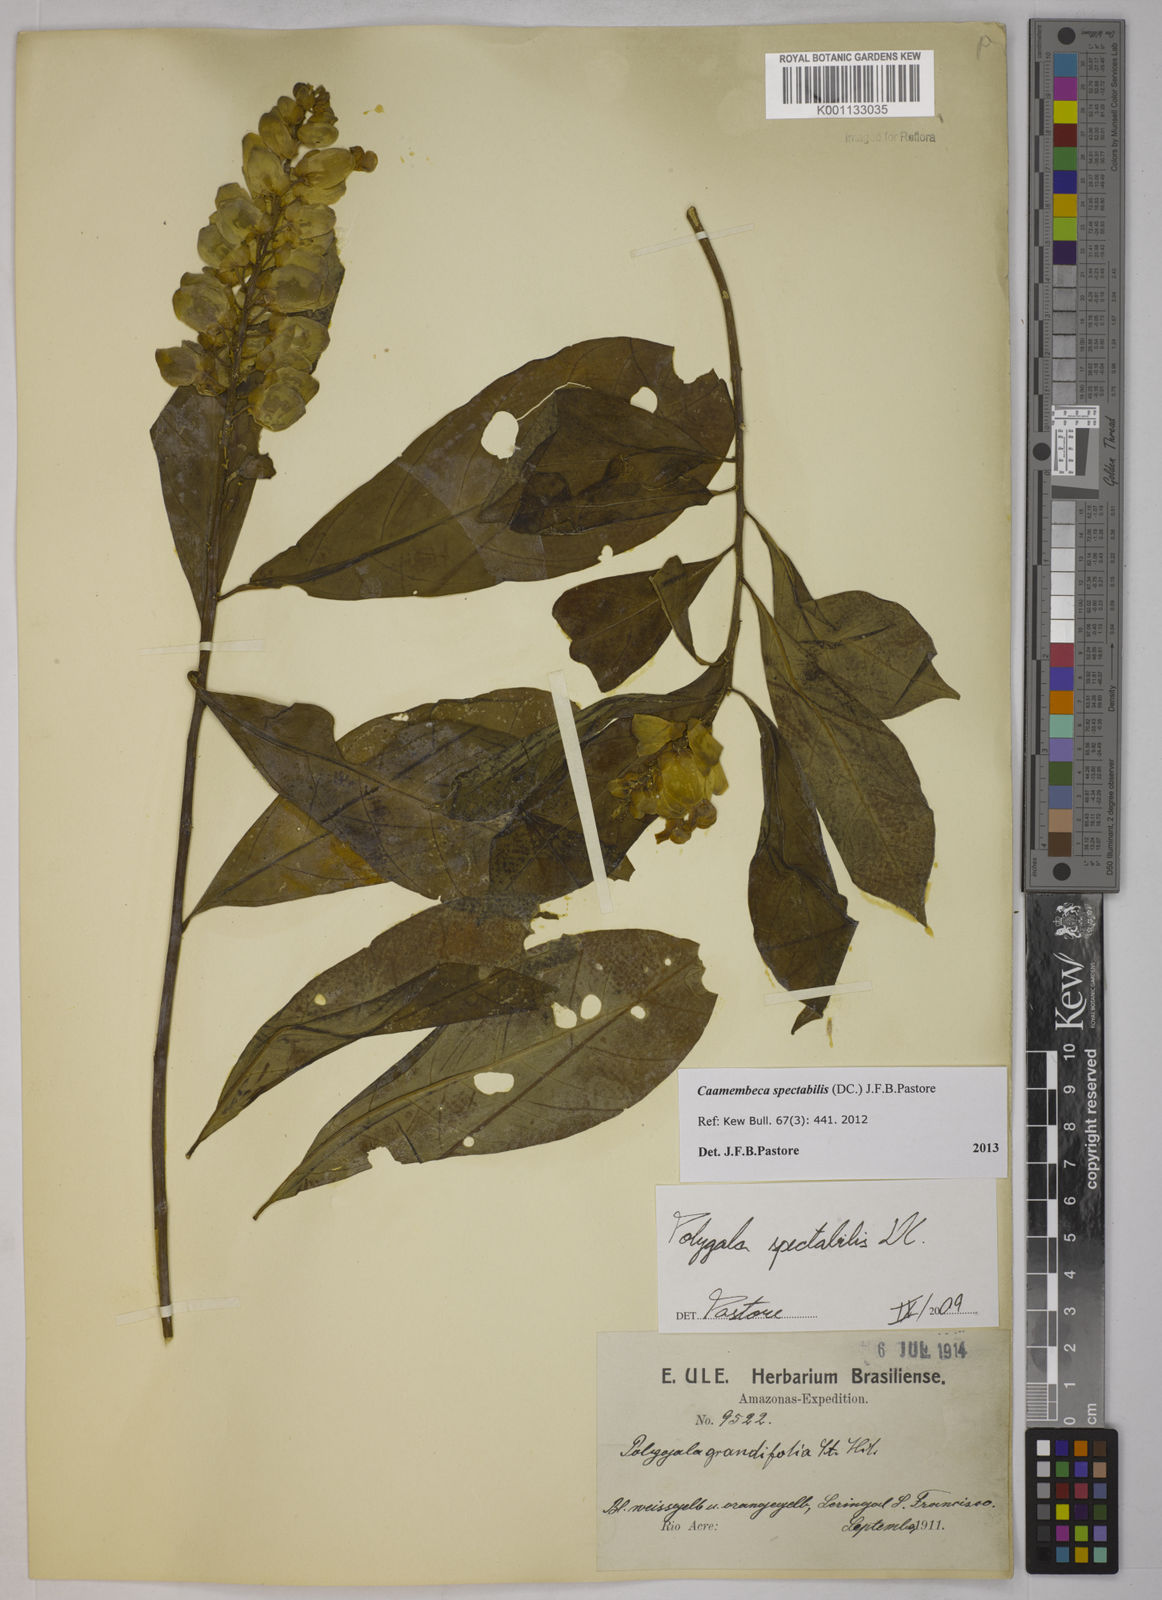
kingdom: Plantae
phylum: Tracheophyta
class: Magnoliopsida
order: Fabales
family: Polygalaceae
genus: Polygala
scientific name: Polygala
